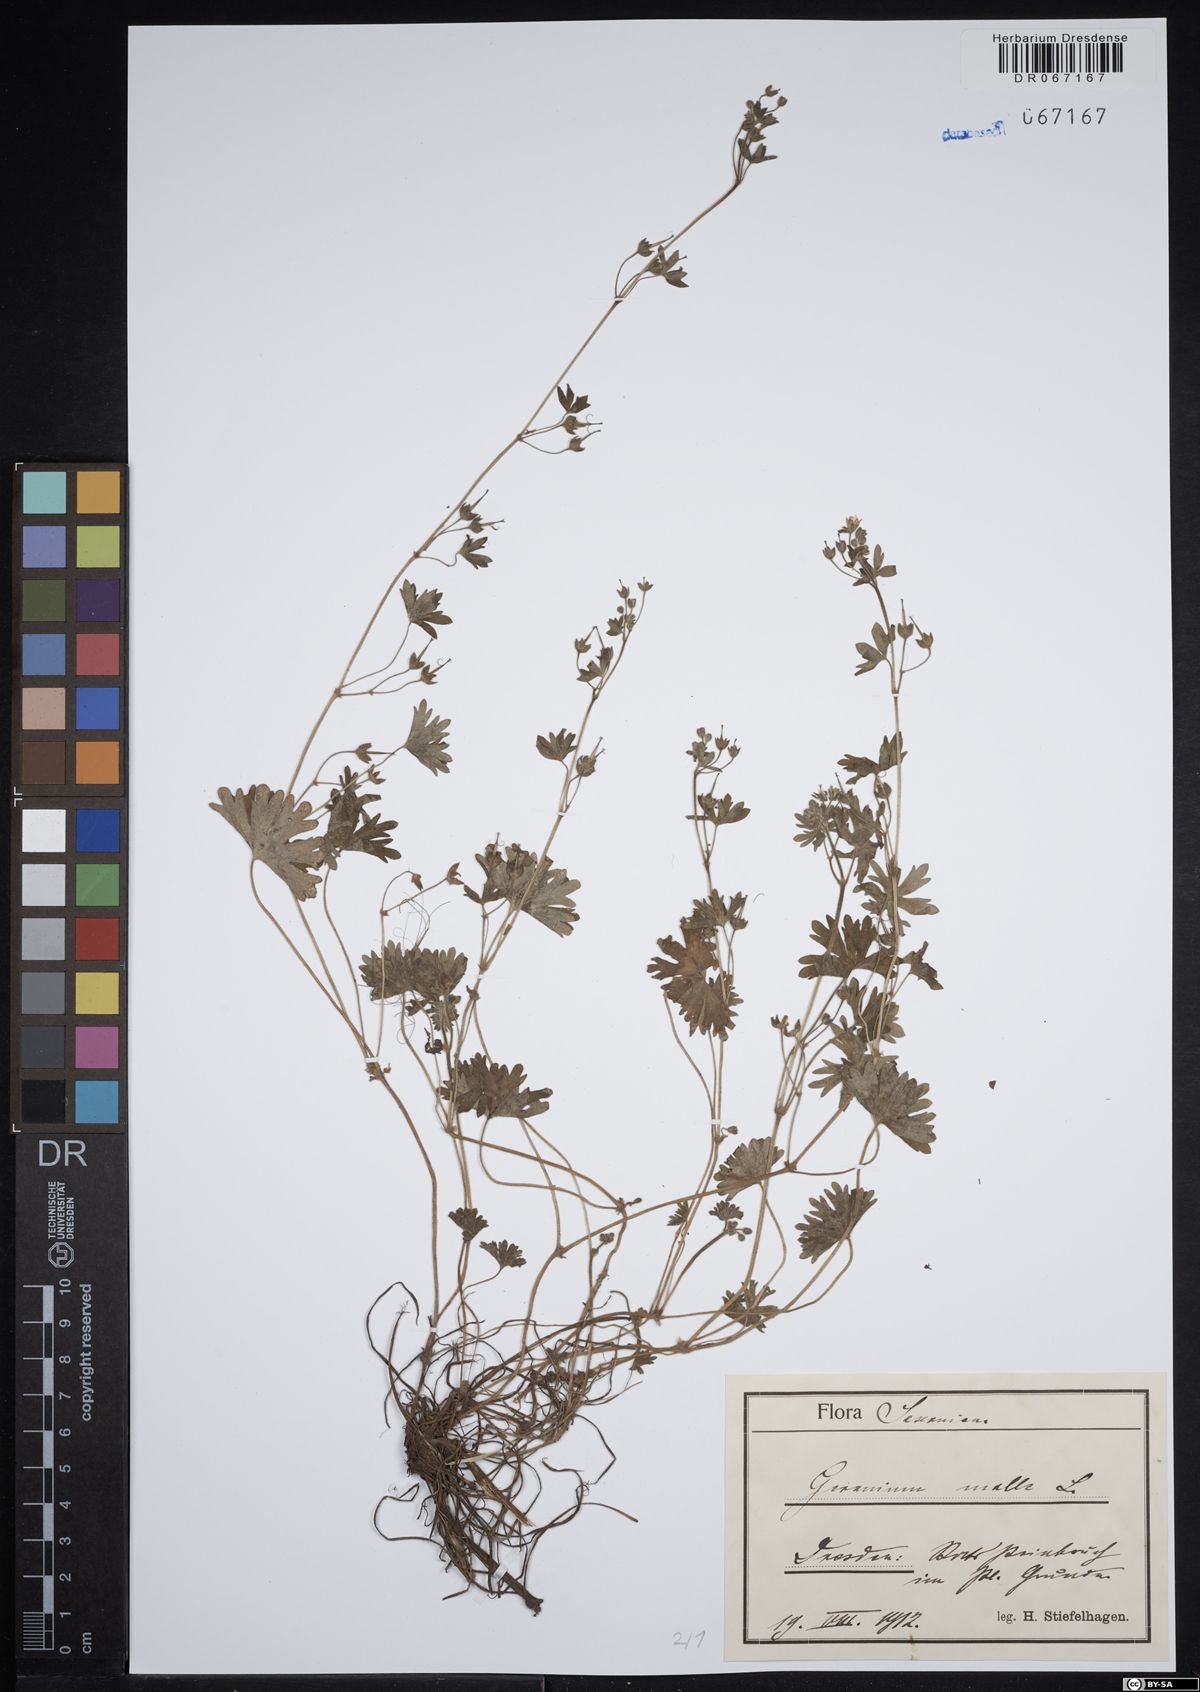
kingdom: Plantae
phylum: Tracheophyta
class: Magnoliopsida
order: Geraniales
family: Geraniaceae
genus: Geranium
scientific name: Geranium molle
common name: Dove's-foot crane's-bill
